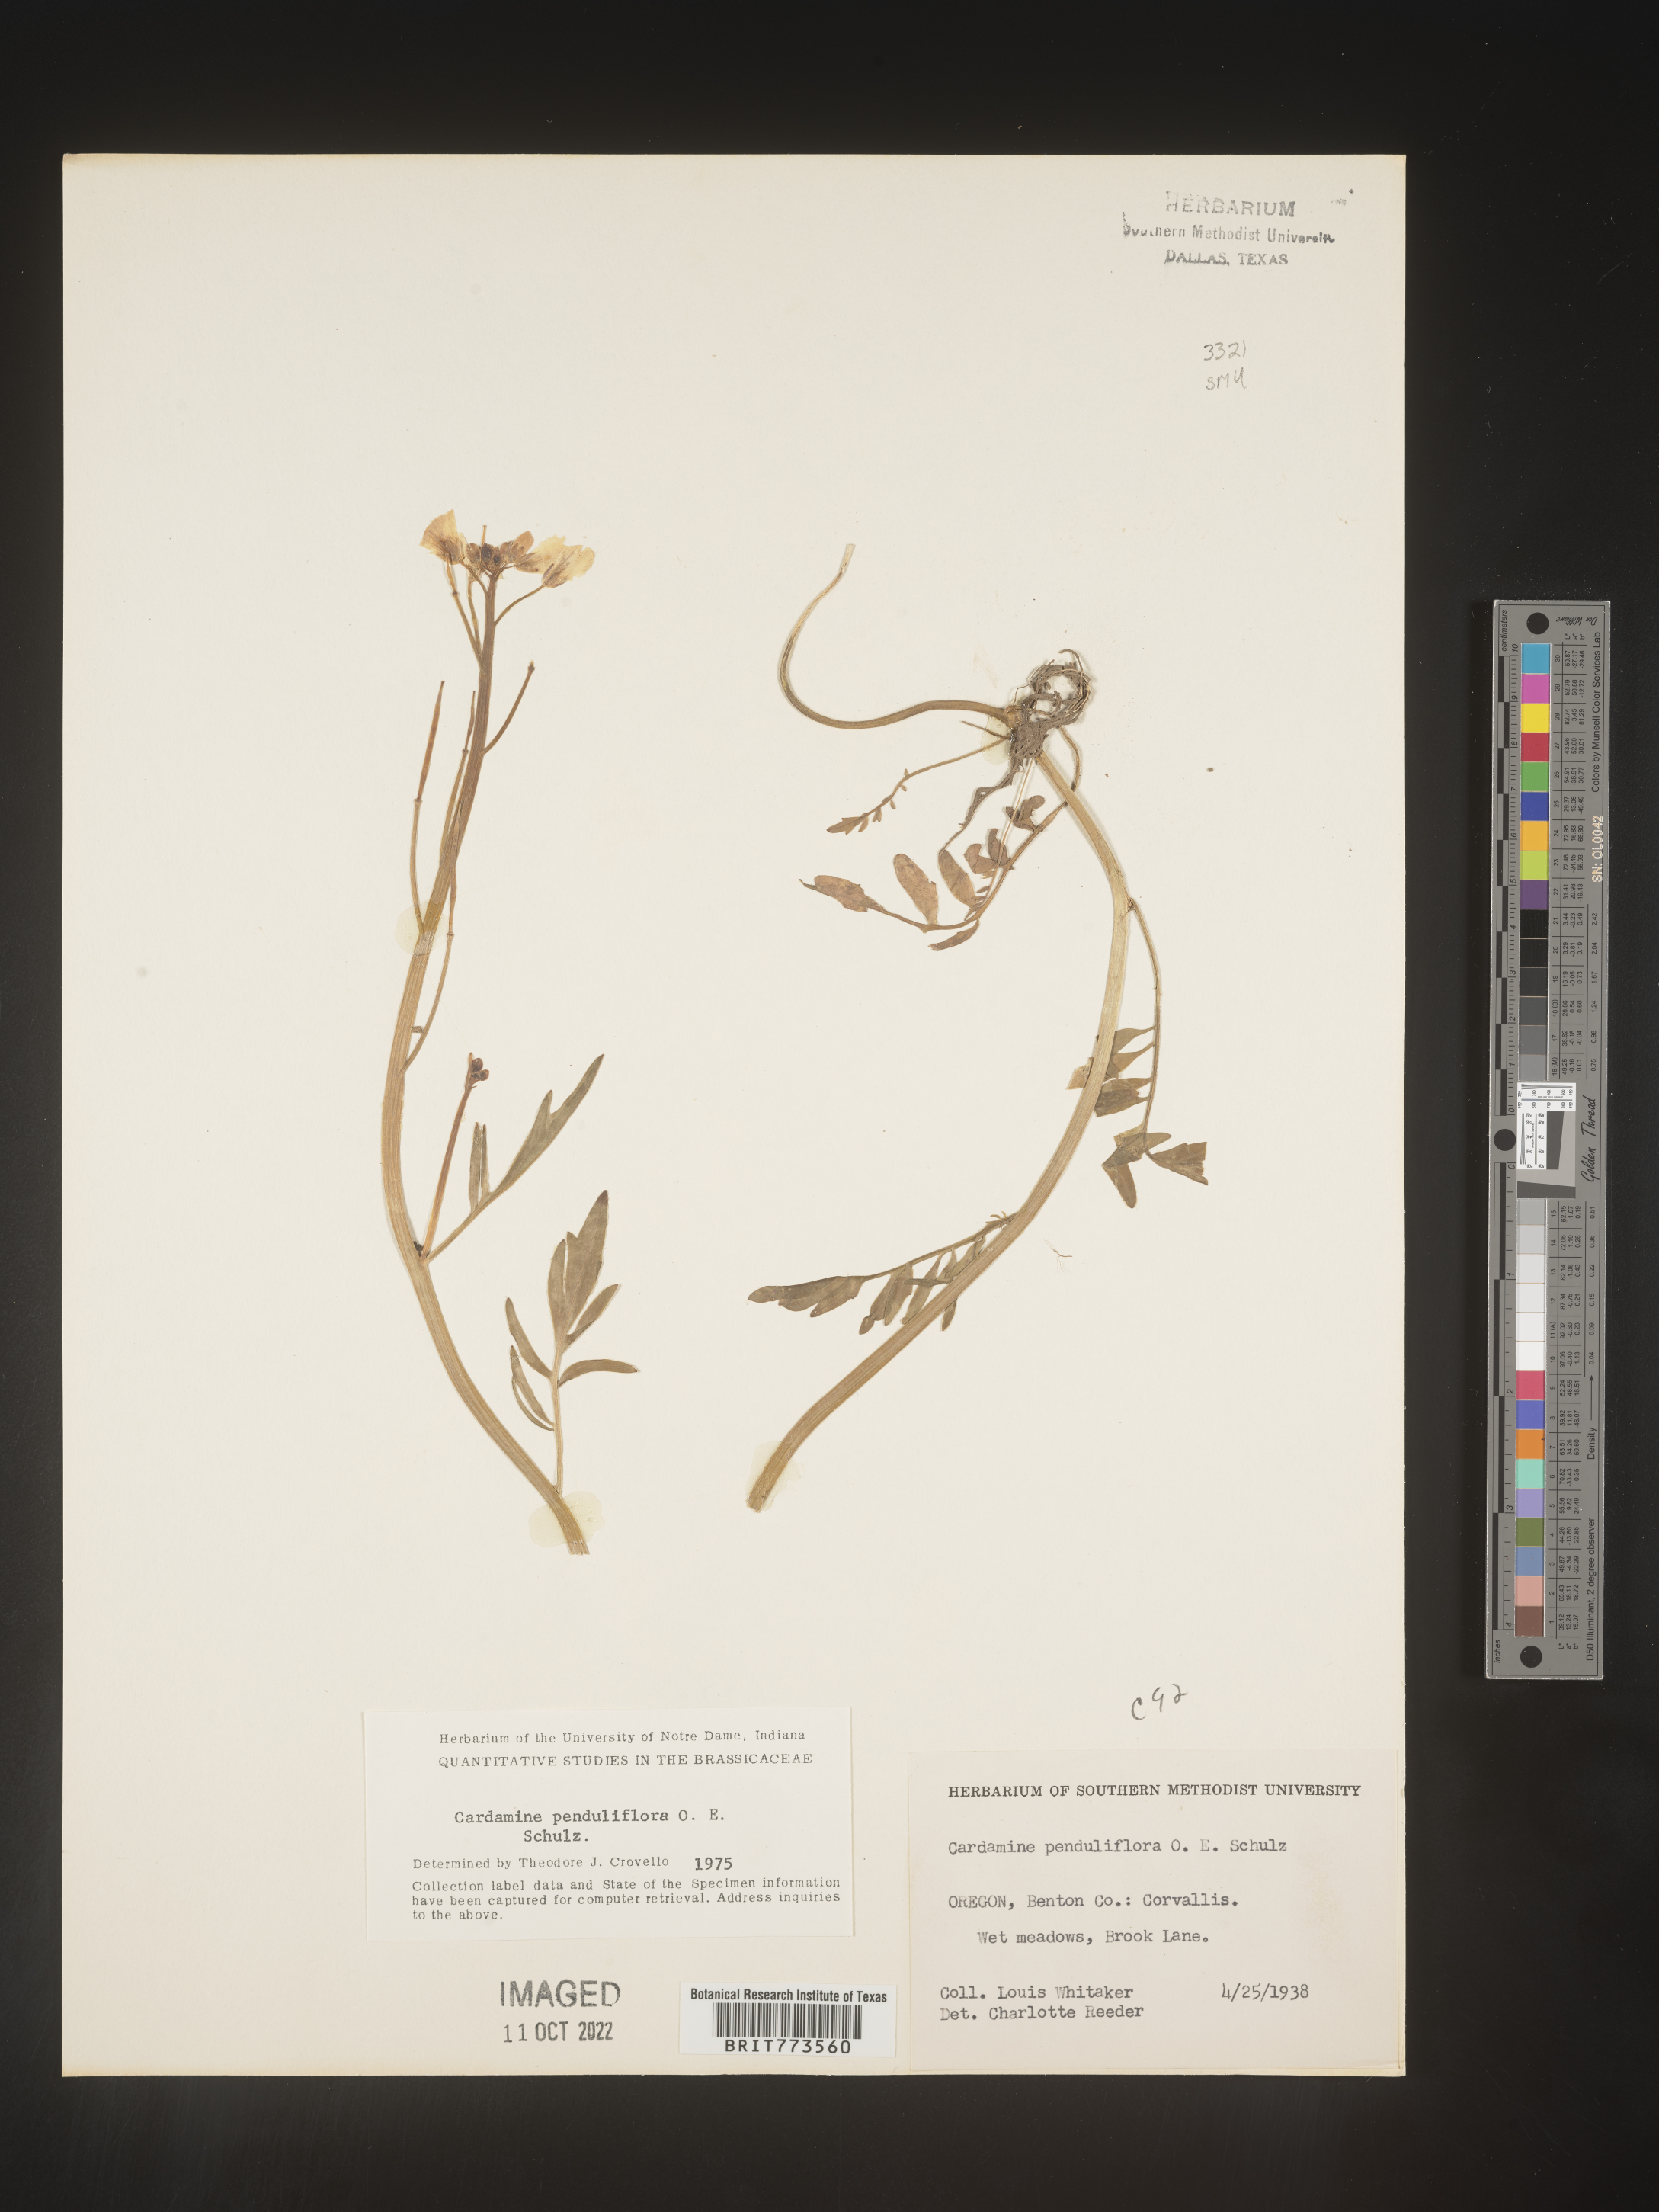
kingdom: Plantae
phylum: Tracheophyta
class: Magnoliopsida
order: Brassicales
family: Brassicaceae
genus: Cardamine
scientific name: Cardamine parviflora
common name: Sand bittercress
